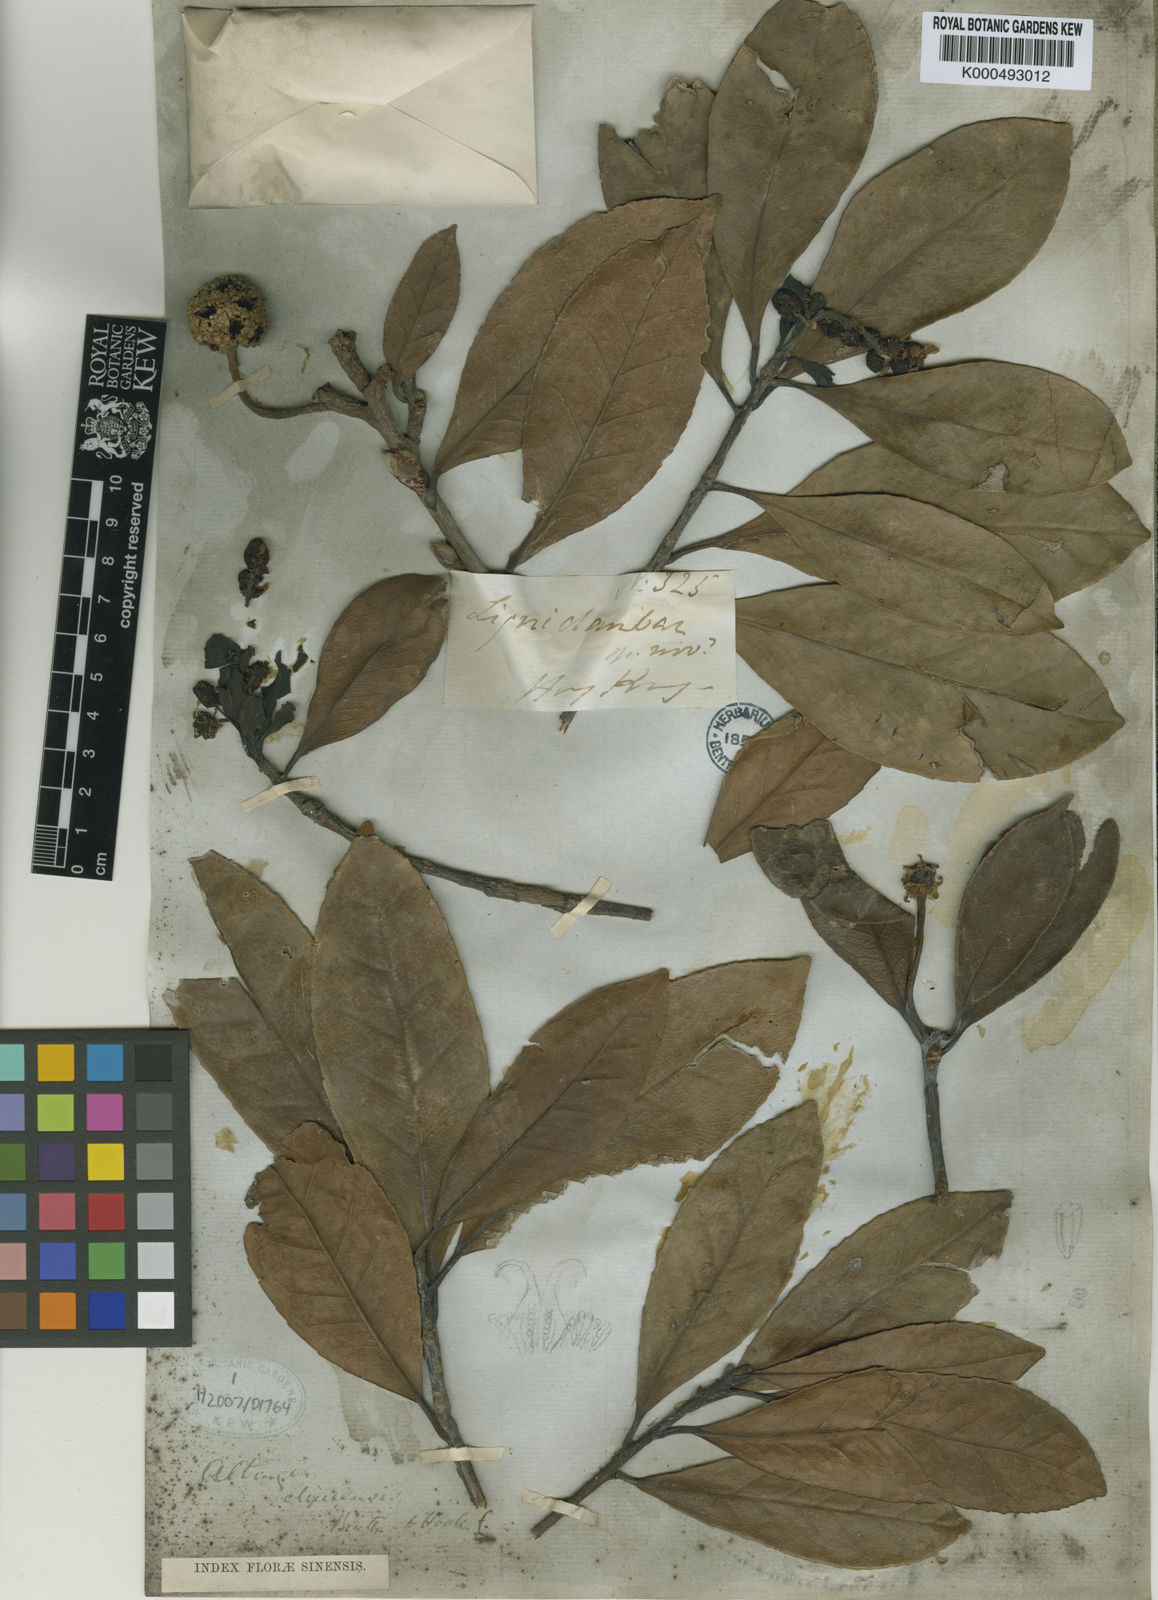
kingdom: Plantae
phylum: Tracheophyta
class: Magnoliopsida
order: Saxifragales
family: Altingiaceae
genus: Liquidambar
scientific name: Liquidambar
